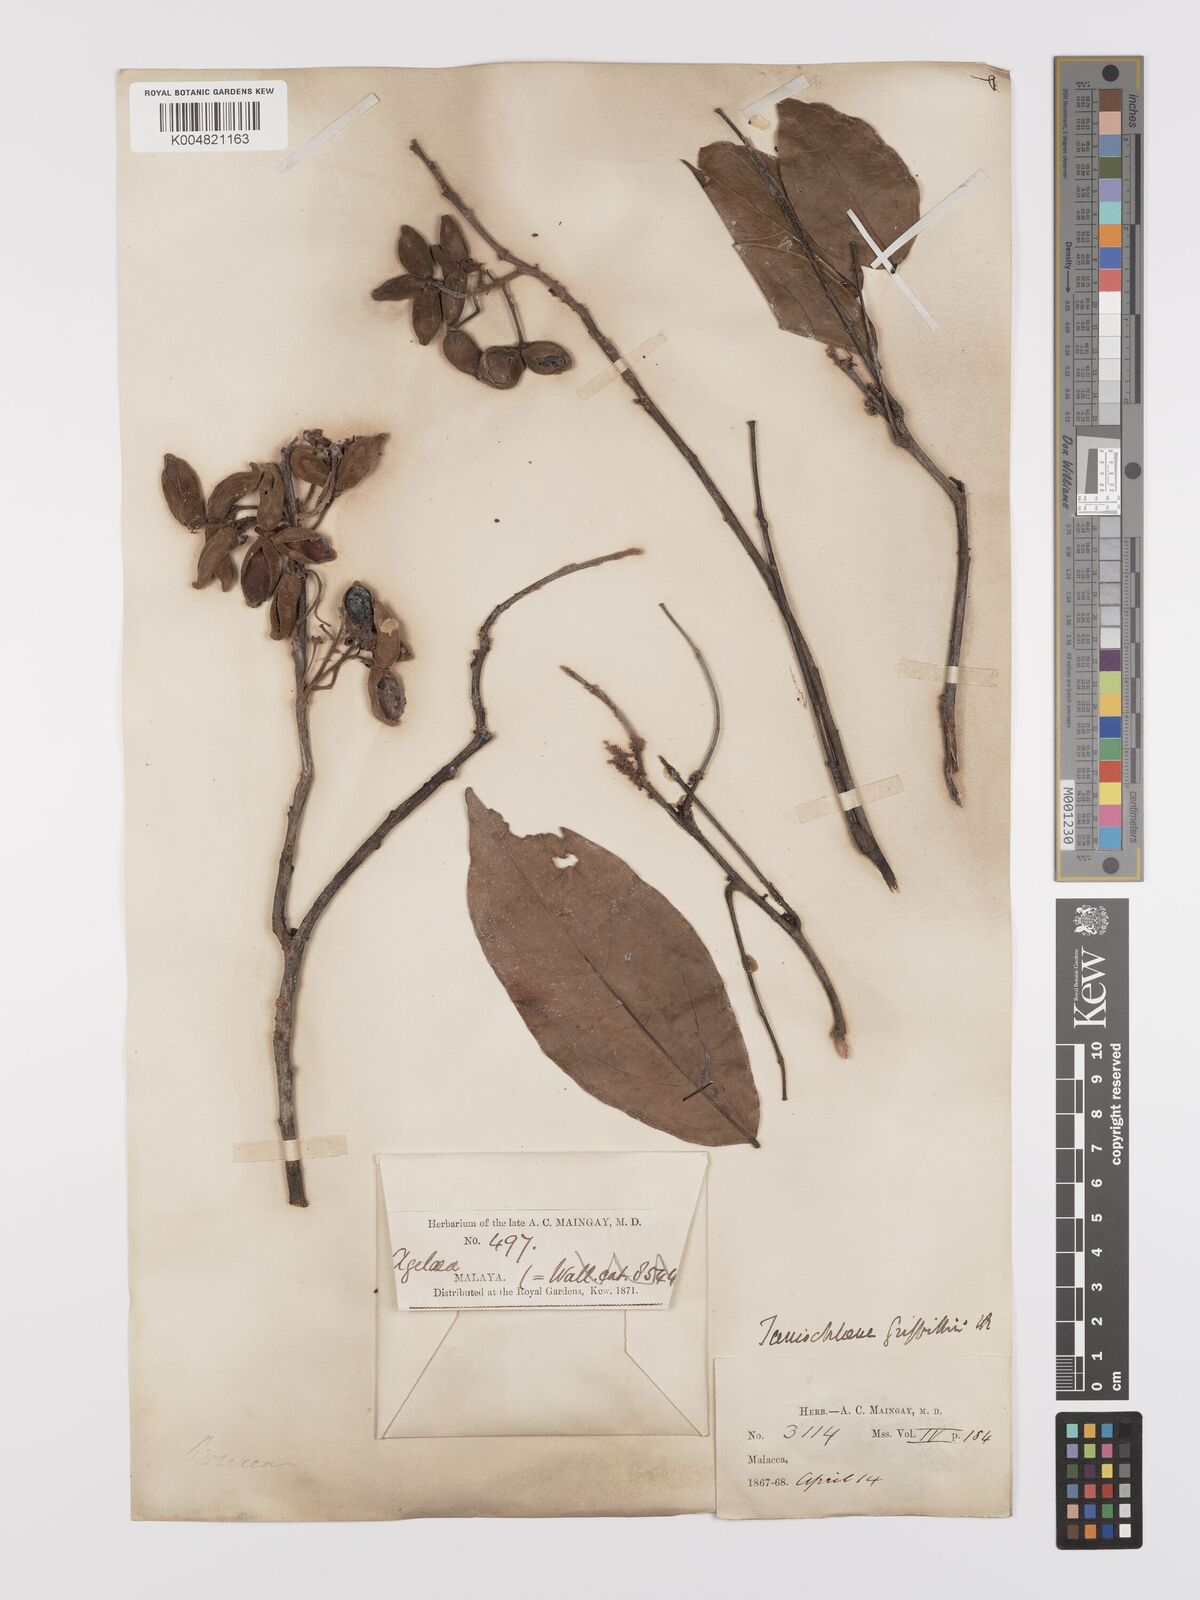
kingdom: Plantae
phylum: Tracheophyta
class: Magnoliopsida
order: Oxalidales
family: Connaraceae
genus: Rourea
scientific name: Rourea acutipetala
